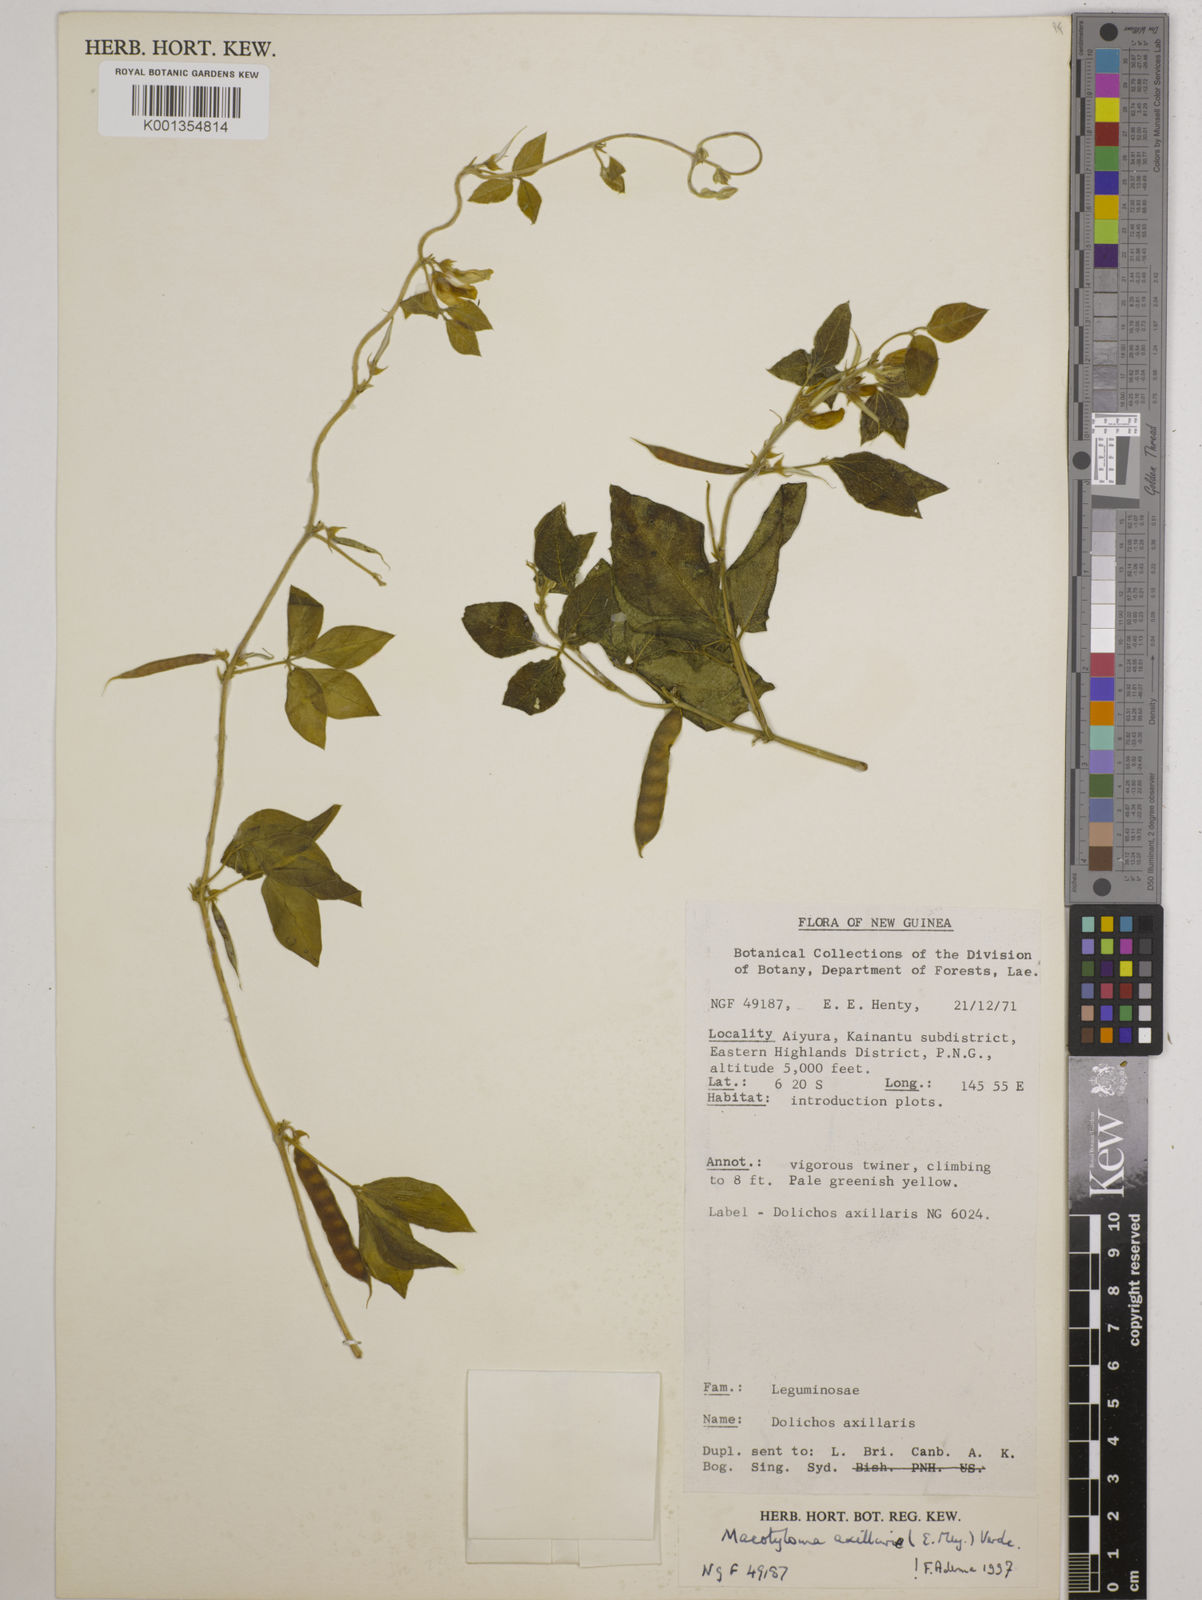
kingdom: Plantae
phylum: Tracheophyta
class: Magnoliopsida
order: Fabales
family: Fabaceae
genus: Macrotyloma
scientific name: Macrotyloma axillare
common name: Perennial horsegram
